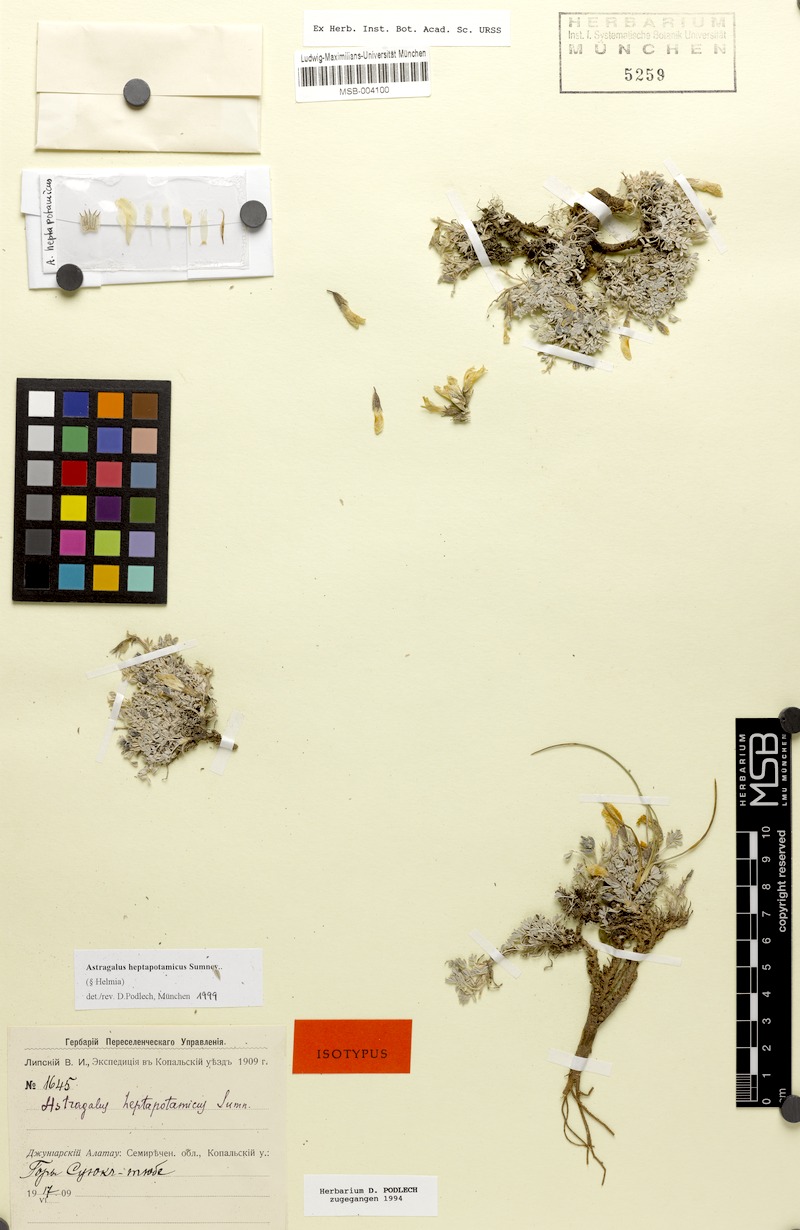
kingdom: Plantae
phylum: Tracheophyta
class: Magnoliopsida
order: Fabales
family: Fabaceae
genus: Astragalus
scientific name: Astragalus heptapotamicus
